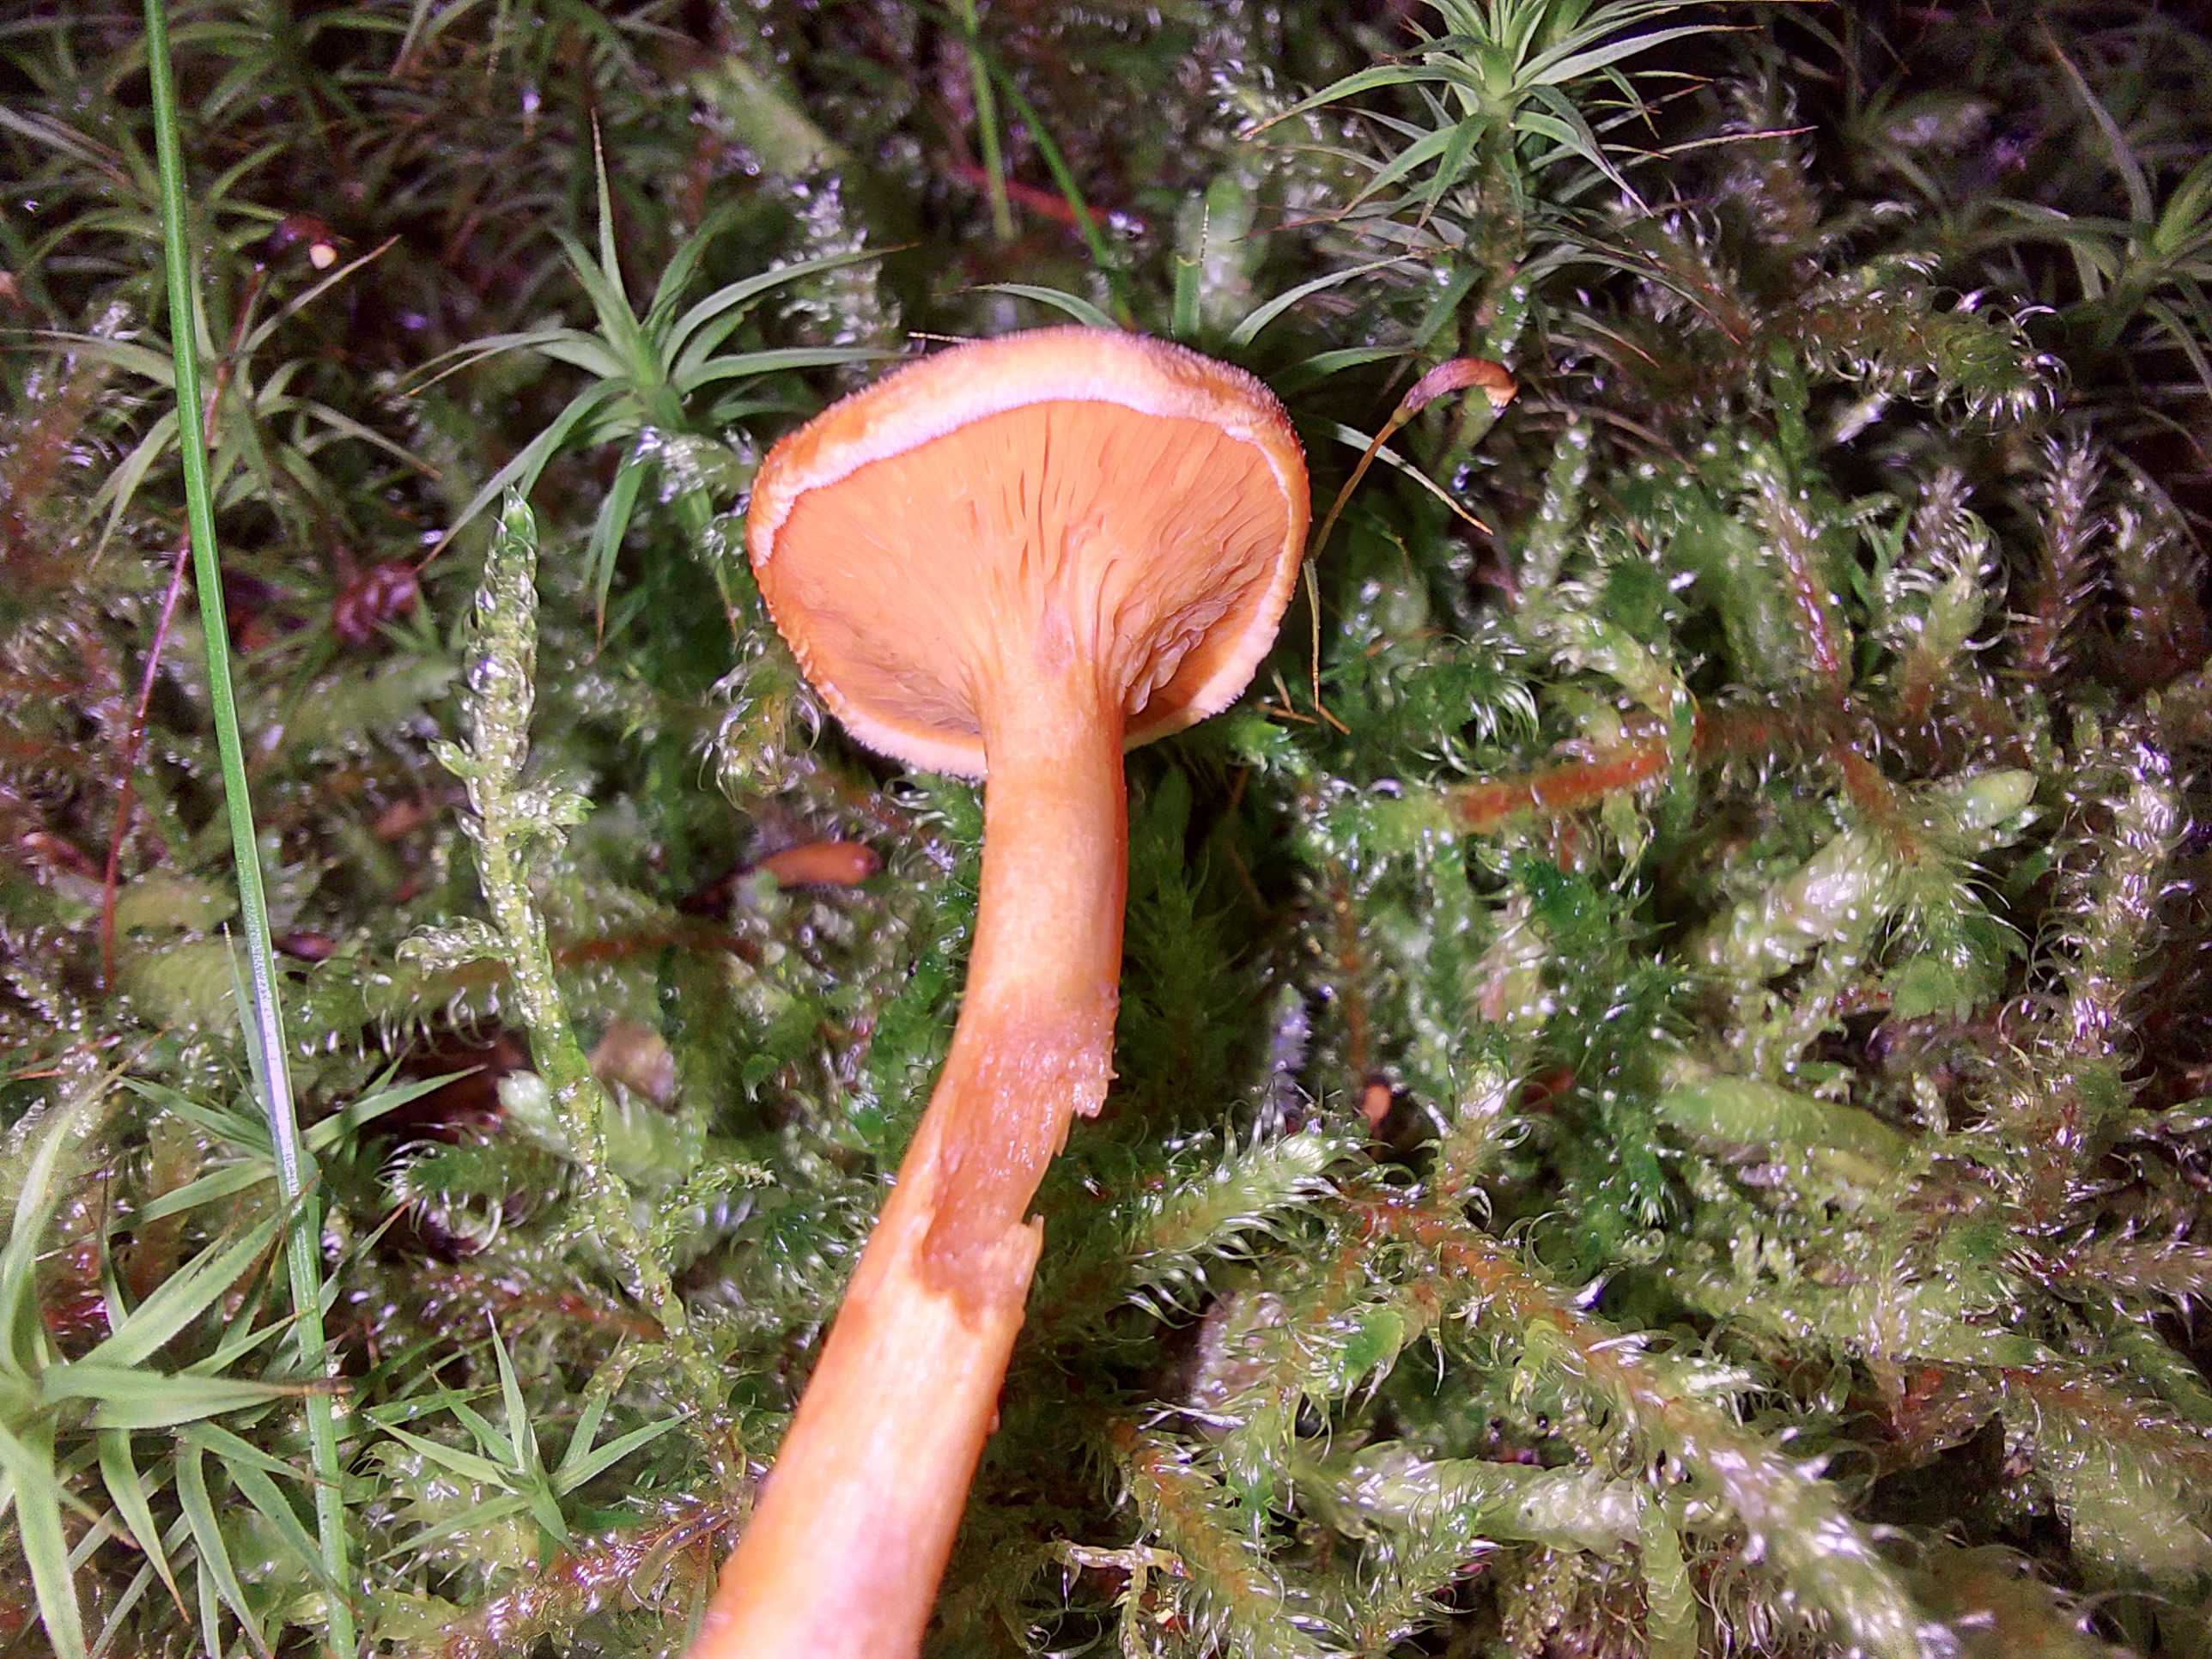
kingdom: Fungi
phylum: Basidiomycota
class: Agaricomycetes
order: Boletales
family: Hygrophoropsidaceae
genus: Hygrophoropsis
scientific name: Hygrophoropsis aurantiaca
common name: almindelig orangekantarel
